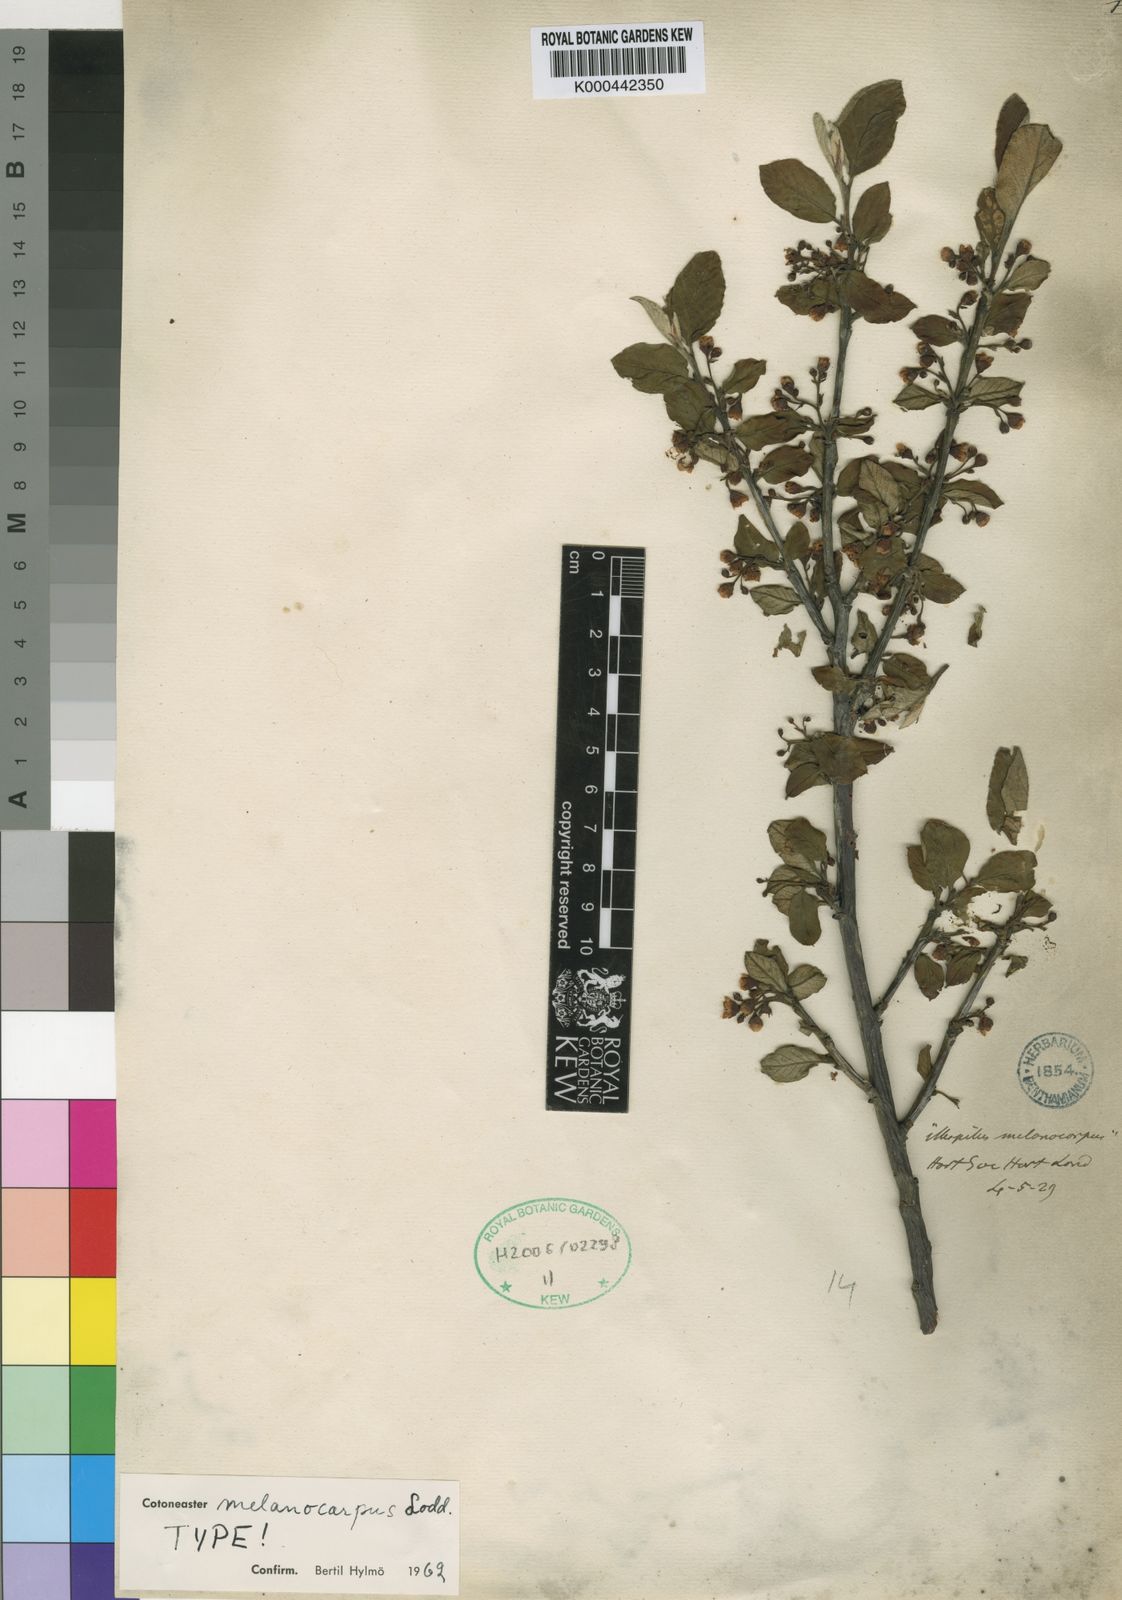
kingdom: Plantae
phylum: Tracheophyta
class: Magnoliopsida
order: Rosales
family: Rosaceae
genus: Cotoneaster
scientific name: Cotoneaster laxiflorus
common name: Black-fruit cotoneaster
